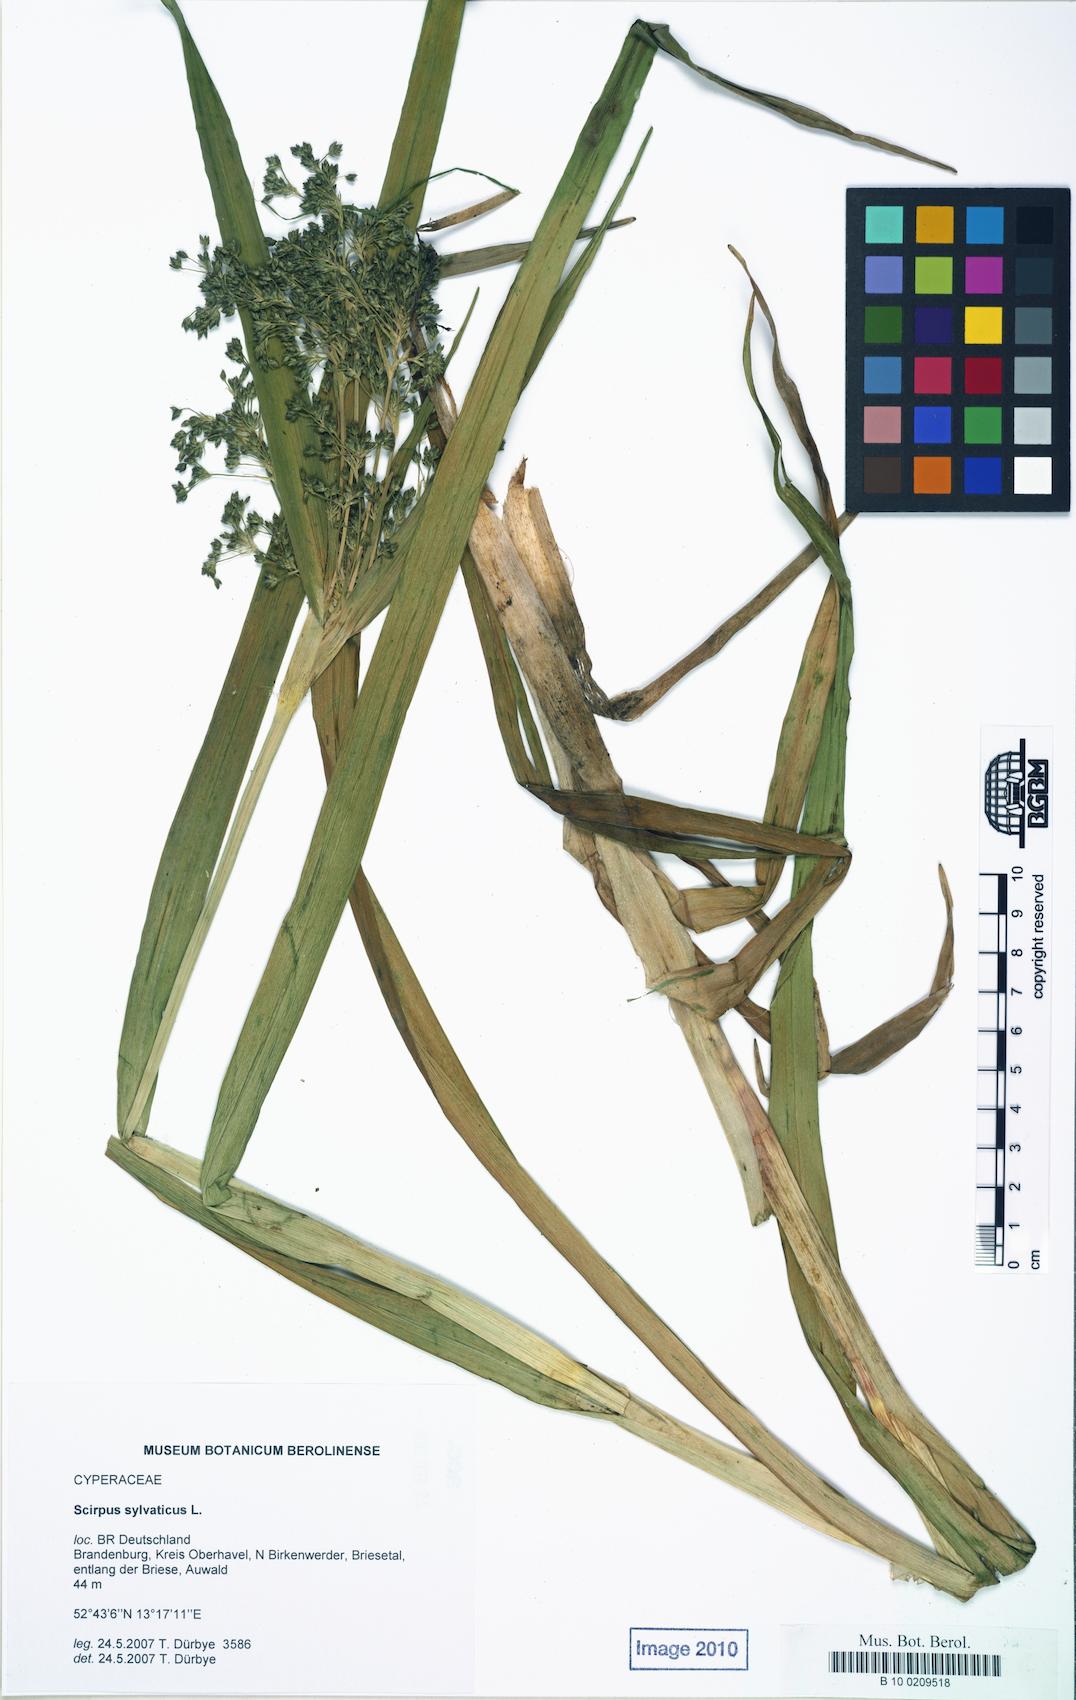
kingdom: Plantae
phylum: Tracheophyta
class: Liliopsida
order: Poales
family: Cyperaceae
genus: Scirpus
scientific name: Scirpus sylvaticus
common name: Wood club-rush
